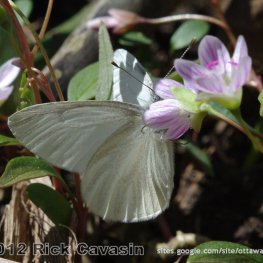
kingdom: Animalia
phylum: Arthropoda
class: Insecta
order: Lepidoptera
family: Pieridae
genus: Pieris
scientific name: Pieris virginiensis
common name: West Virginia White
